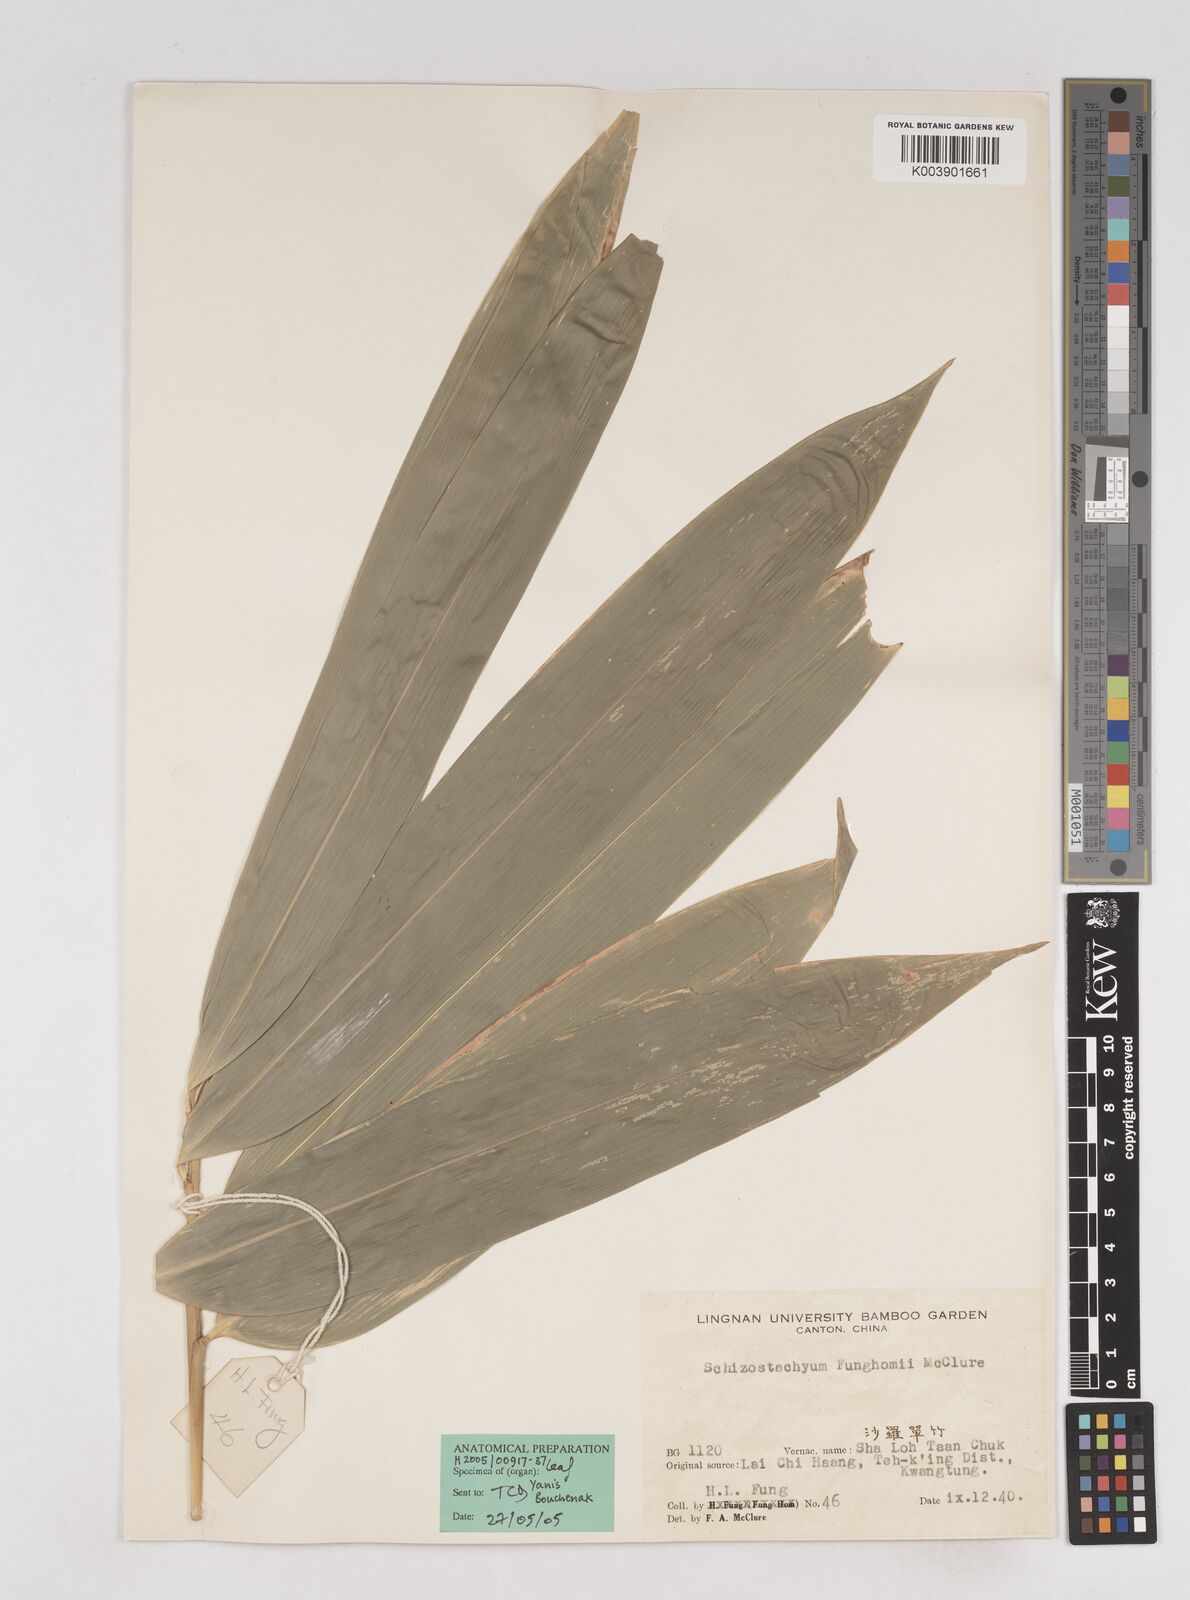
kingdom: Plantae
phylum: Tracheophyta
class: Liliopsida
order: Poales
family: Poaceae
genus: Schizostachyum
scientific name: Schizostachyum funghomii
